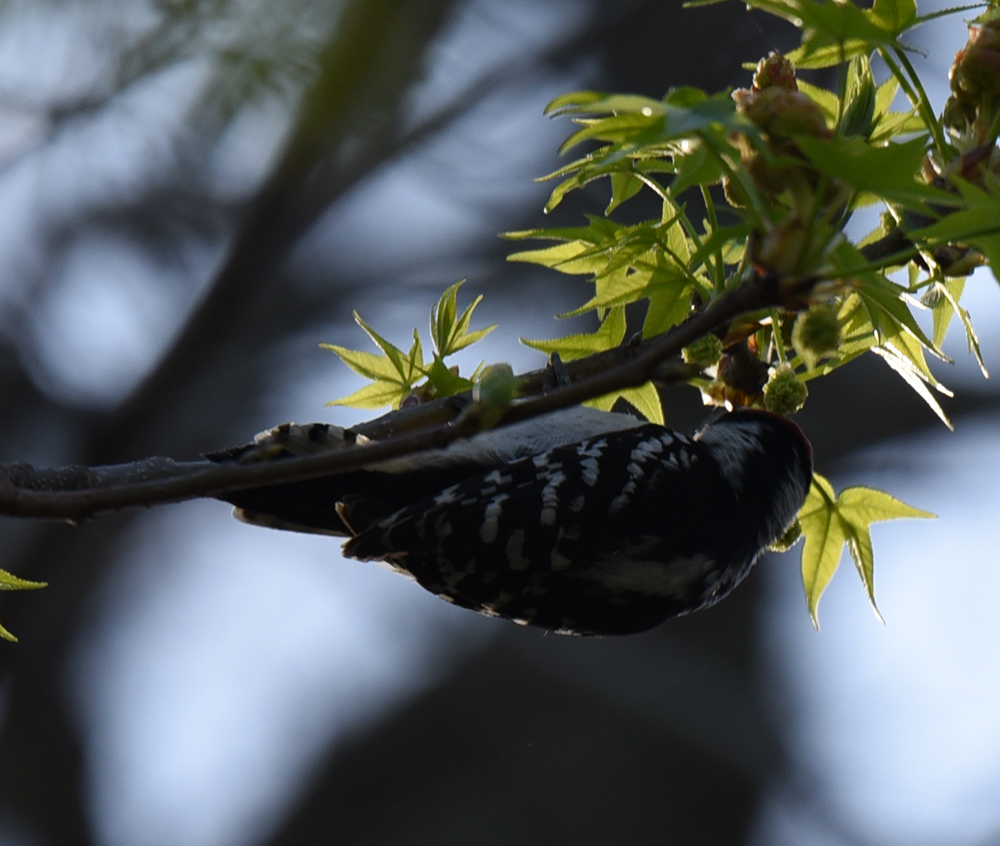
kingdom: Animalia
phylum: Chordata
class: Aves
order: Piciformes
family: Picidae
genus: Dryobates
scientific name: Dryobates pubescens
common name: Downy woodpecker
